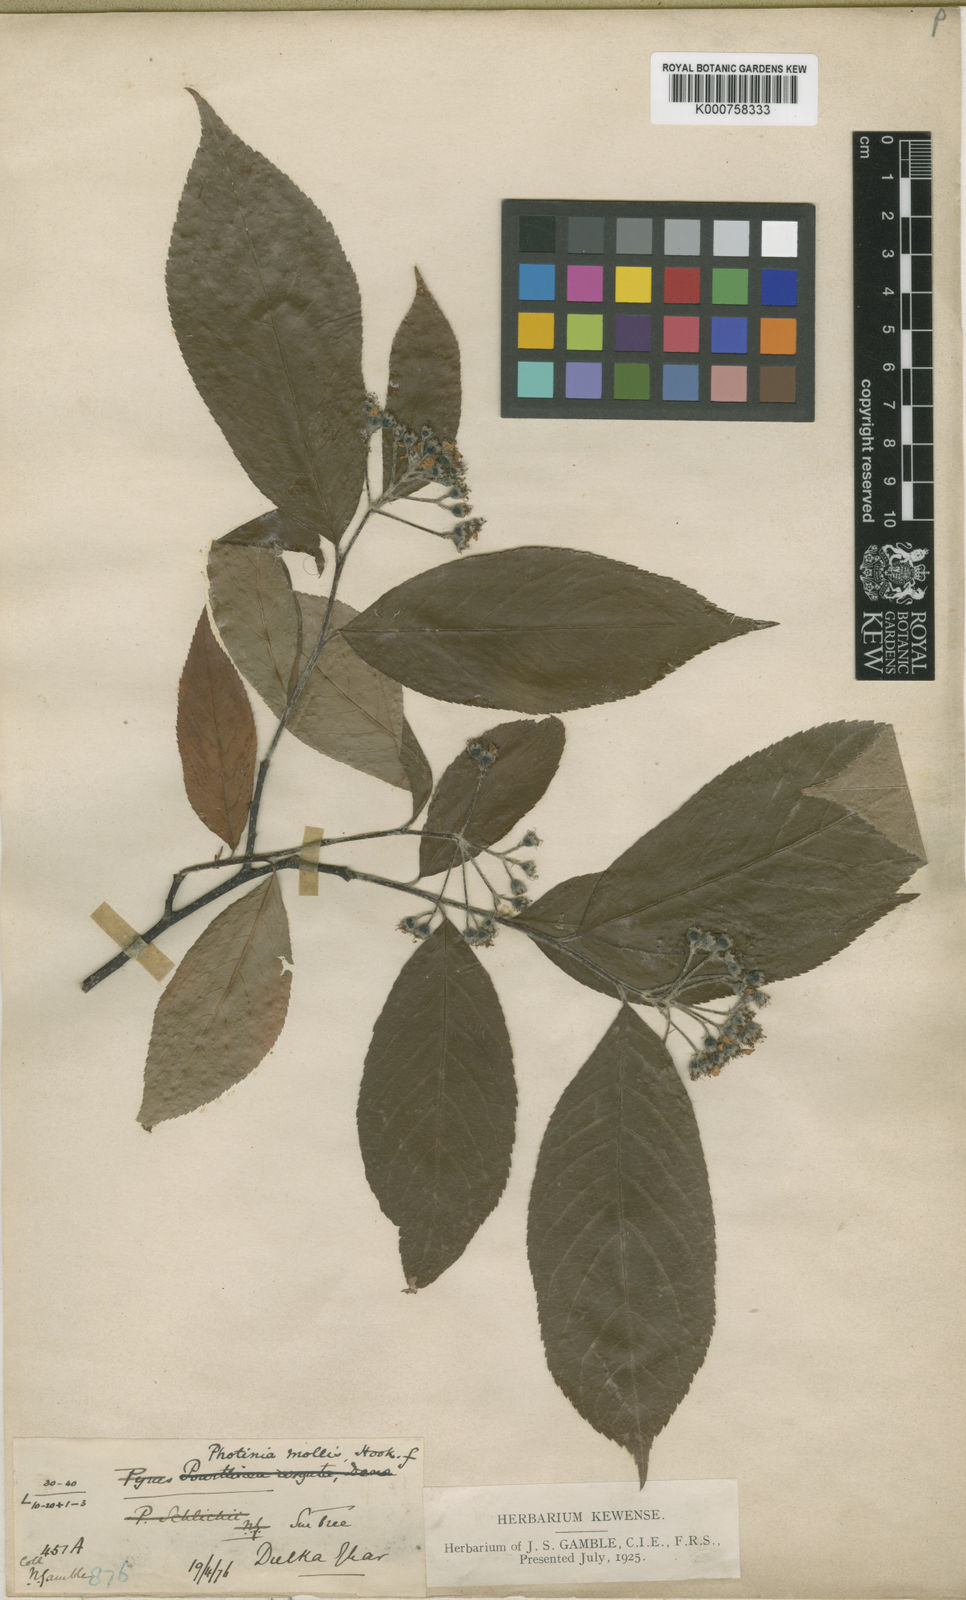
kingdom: Plantae
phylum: Tracheophyta
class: Magnoliopsida
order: Rosales
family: Rosaceae
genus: Photinia
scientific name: Photinia
